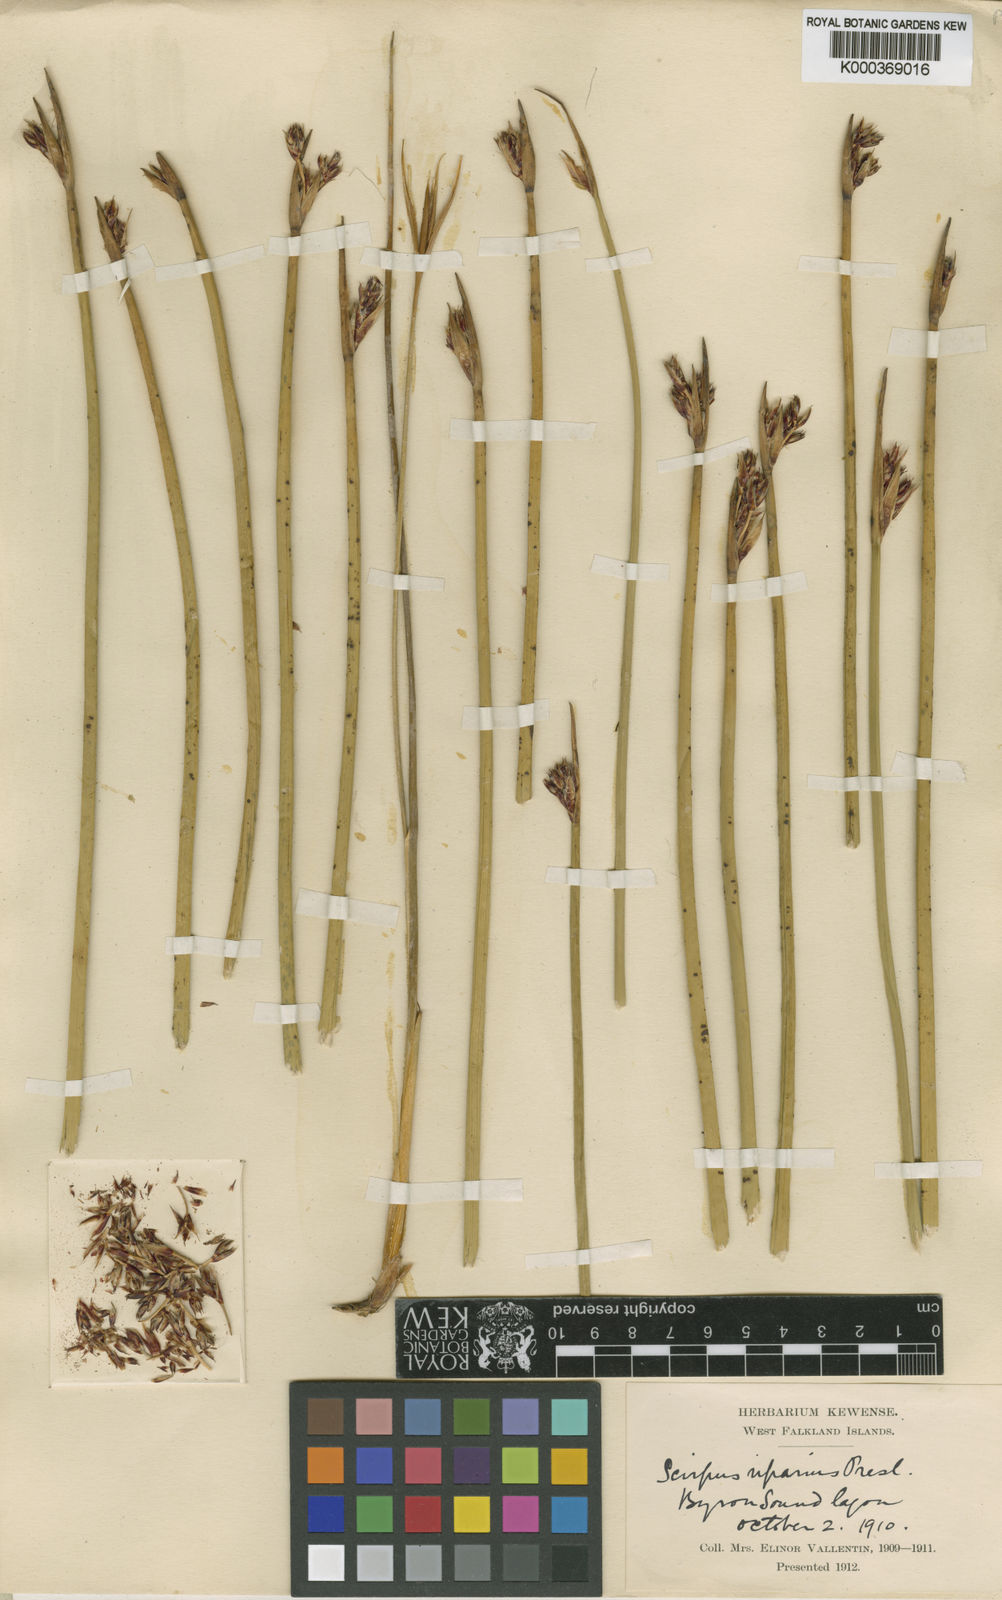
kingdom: Plantae
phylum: Tracheophyta
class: Liliopsida
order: Poales
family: Cyperaceae
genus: Schoenoplectus
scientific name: Schoenoplectus californicus
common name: California bulrush
